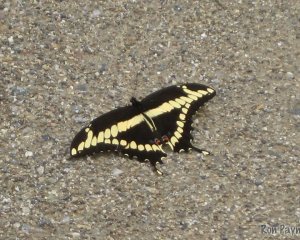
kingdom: Animalia
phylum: Arthropoda
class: Insecta
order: Lepidoptera
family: Papilionidae
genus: Papilio
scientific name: Papilio cresphontes
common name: Eastern Giant Swallowtail
